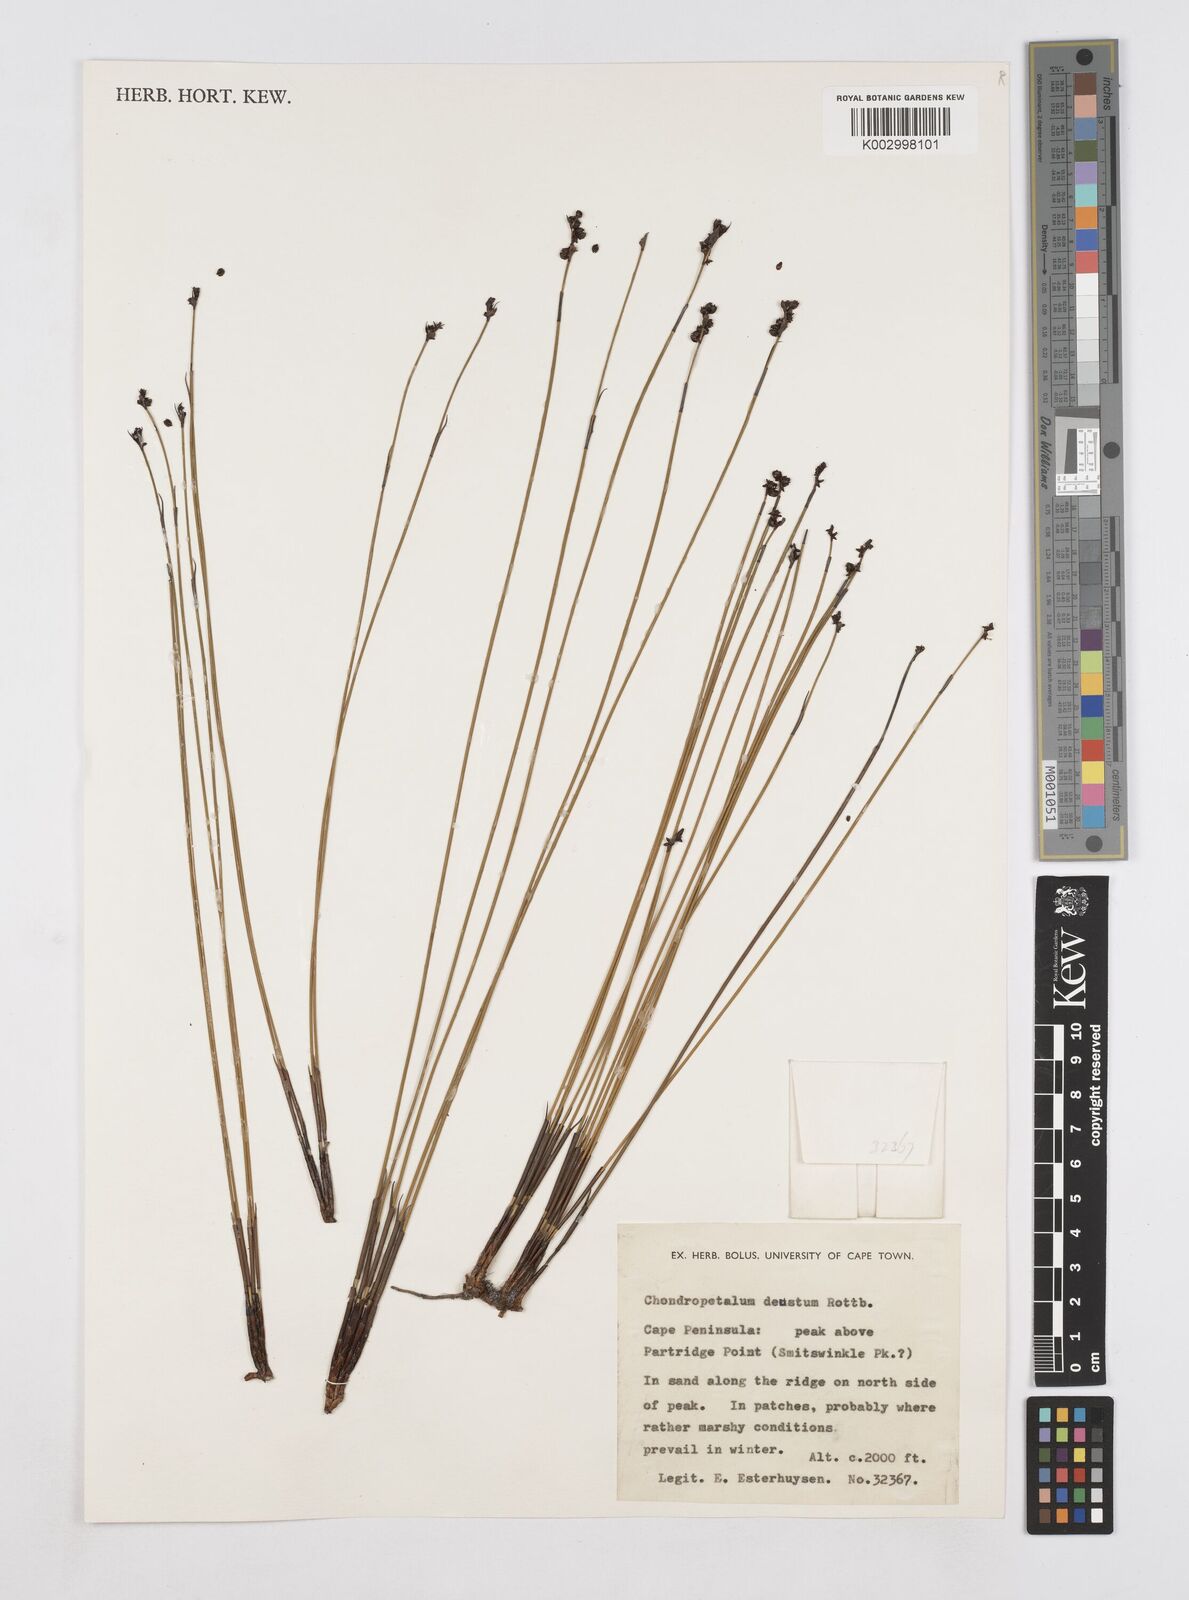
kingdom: Plantae
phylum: Tracheophyta
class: Liliopsida
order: Poales
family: Restionaceae
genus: Elegia
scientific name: Elegia deusta
